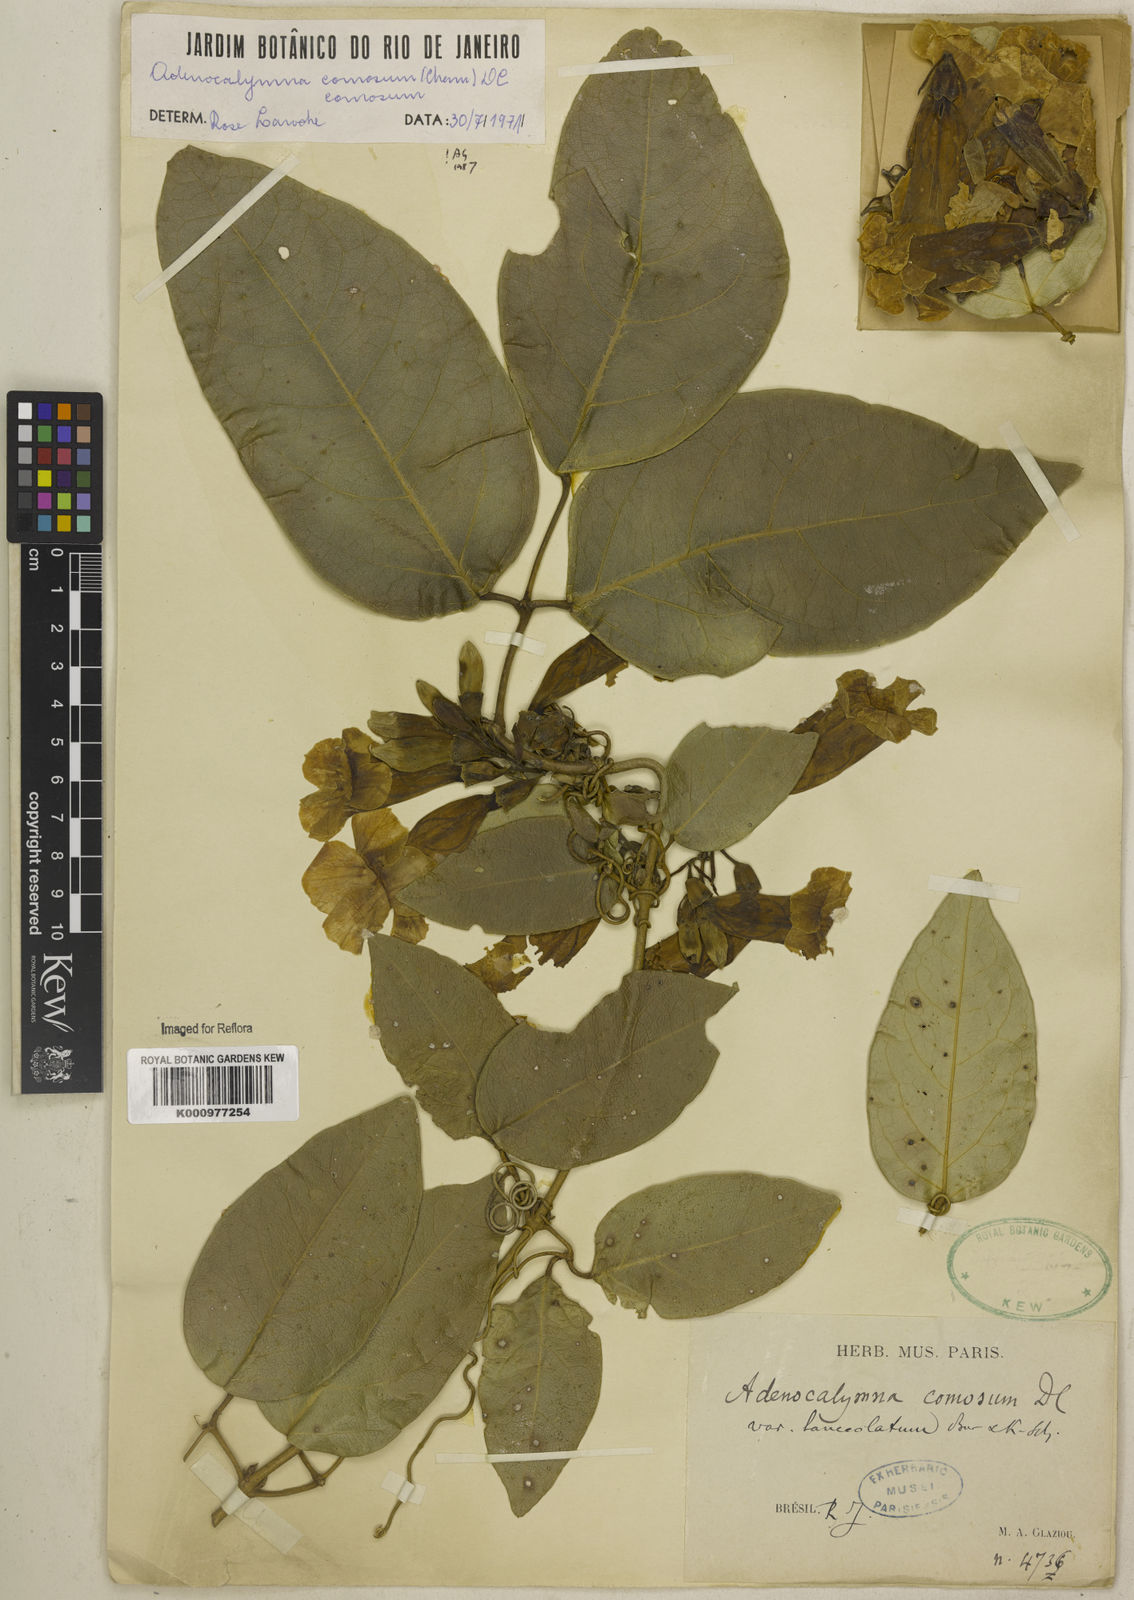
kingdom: Plantae
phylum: Tracheophyta
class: Magnoliopsida
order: Lamiales
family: Bignoniaceae
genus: Adenocalymma
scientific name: Adenocalymma acutissimum
